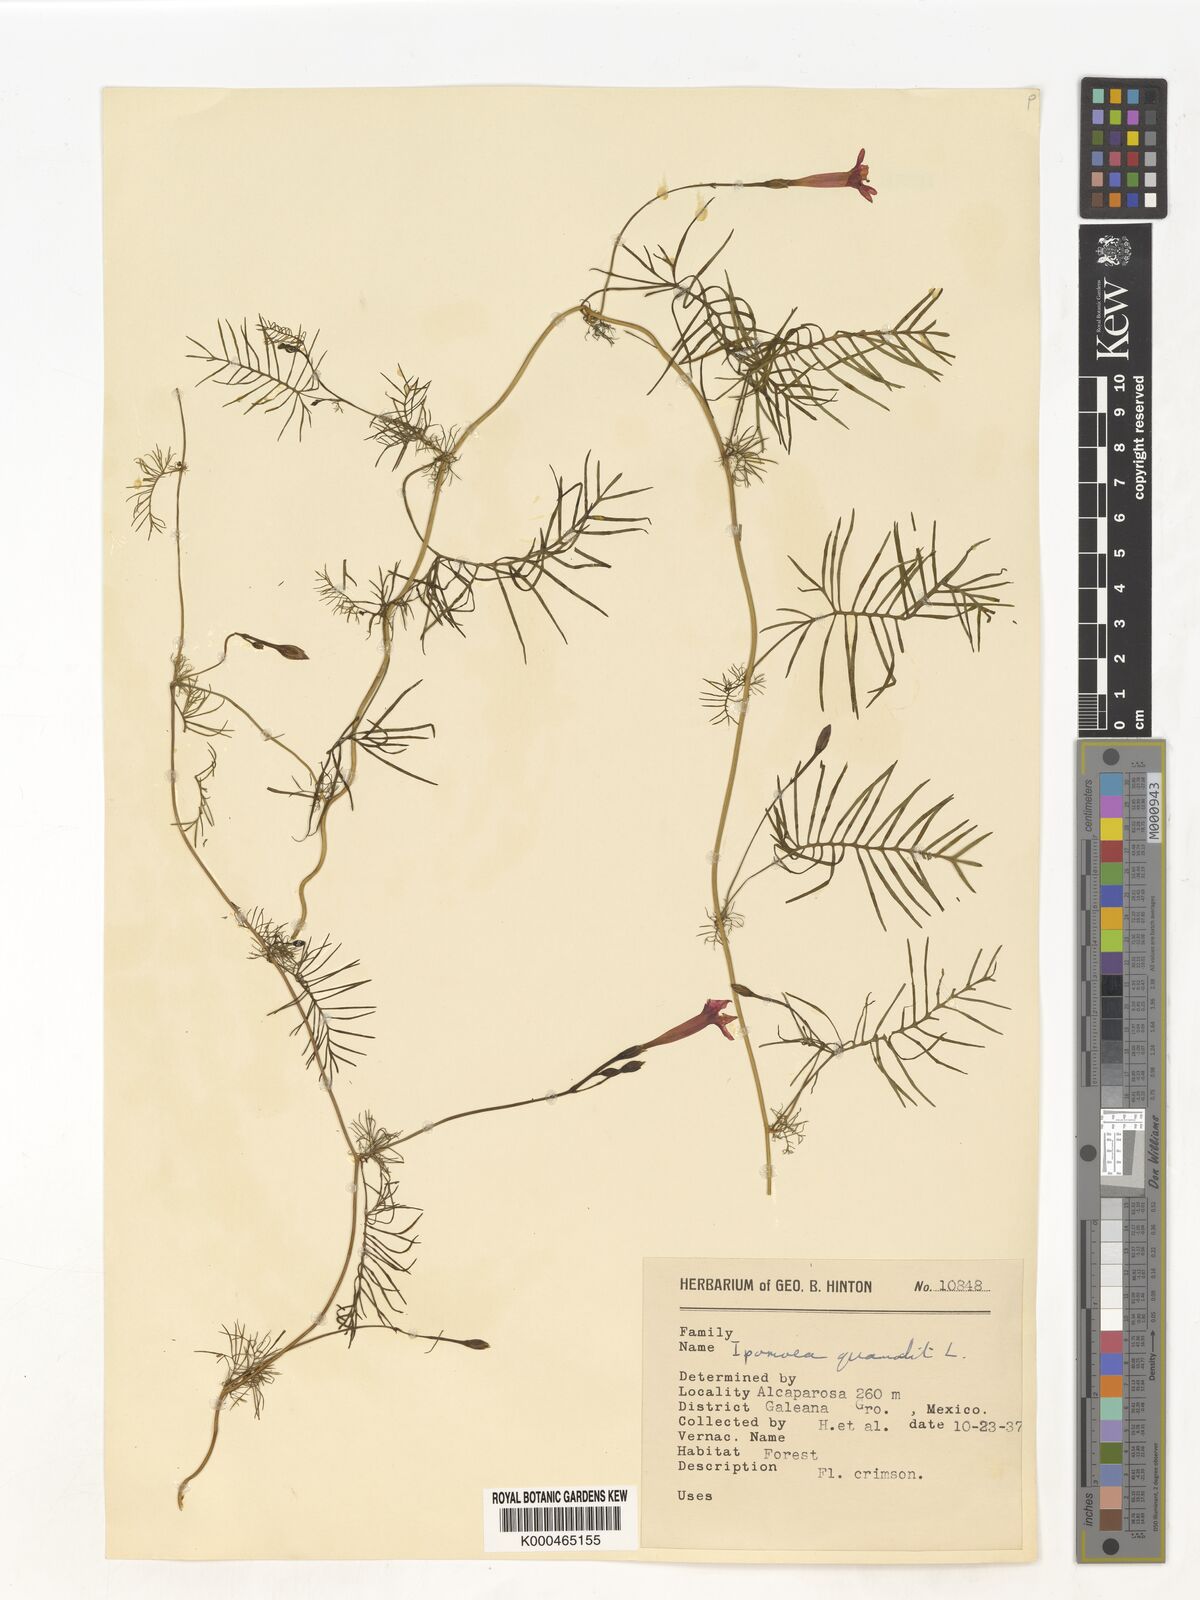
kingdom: Plantae
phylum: Tracheophyta
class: Magnoliopsida
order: Solanales
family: Convolvulaceae
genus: Ipomoea
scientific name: Ipomoea quamoclit
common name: Cypress vine
